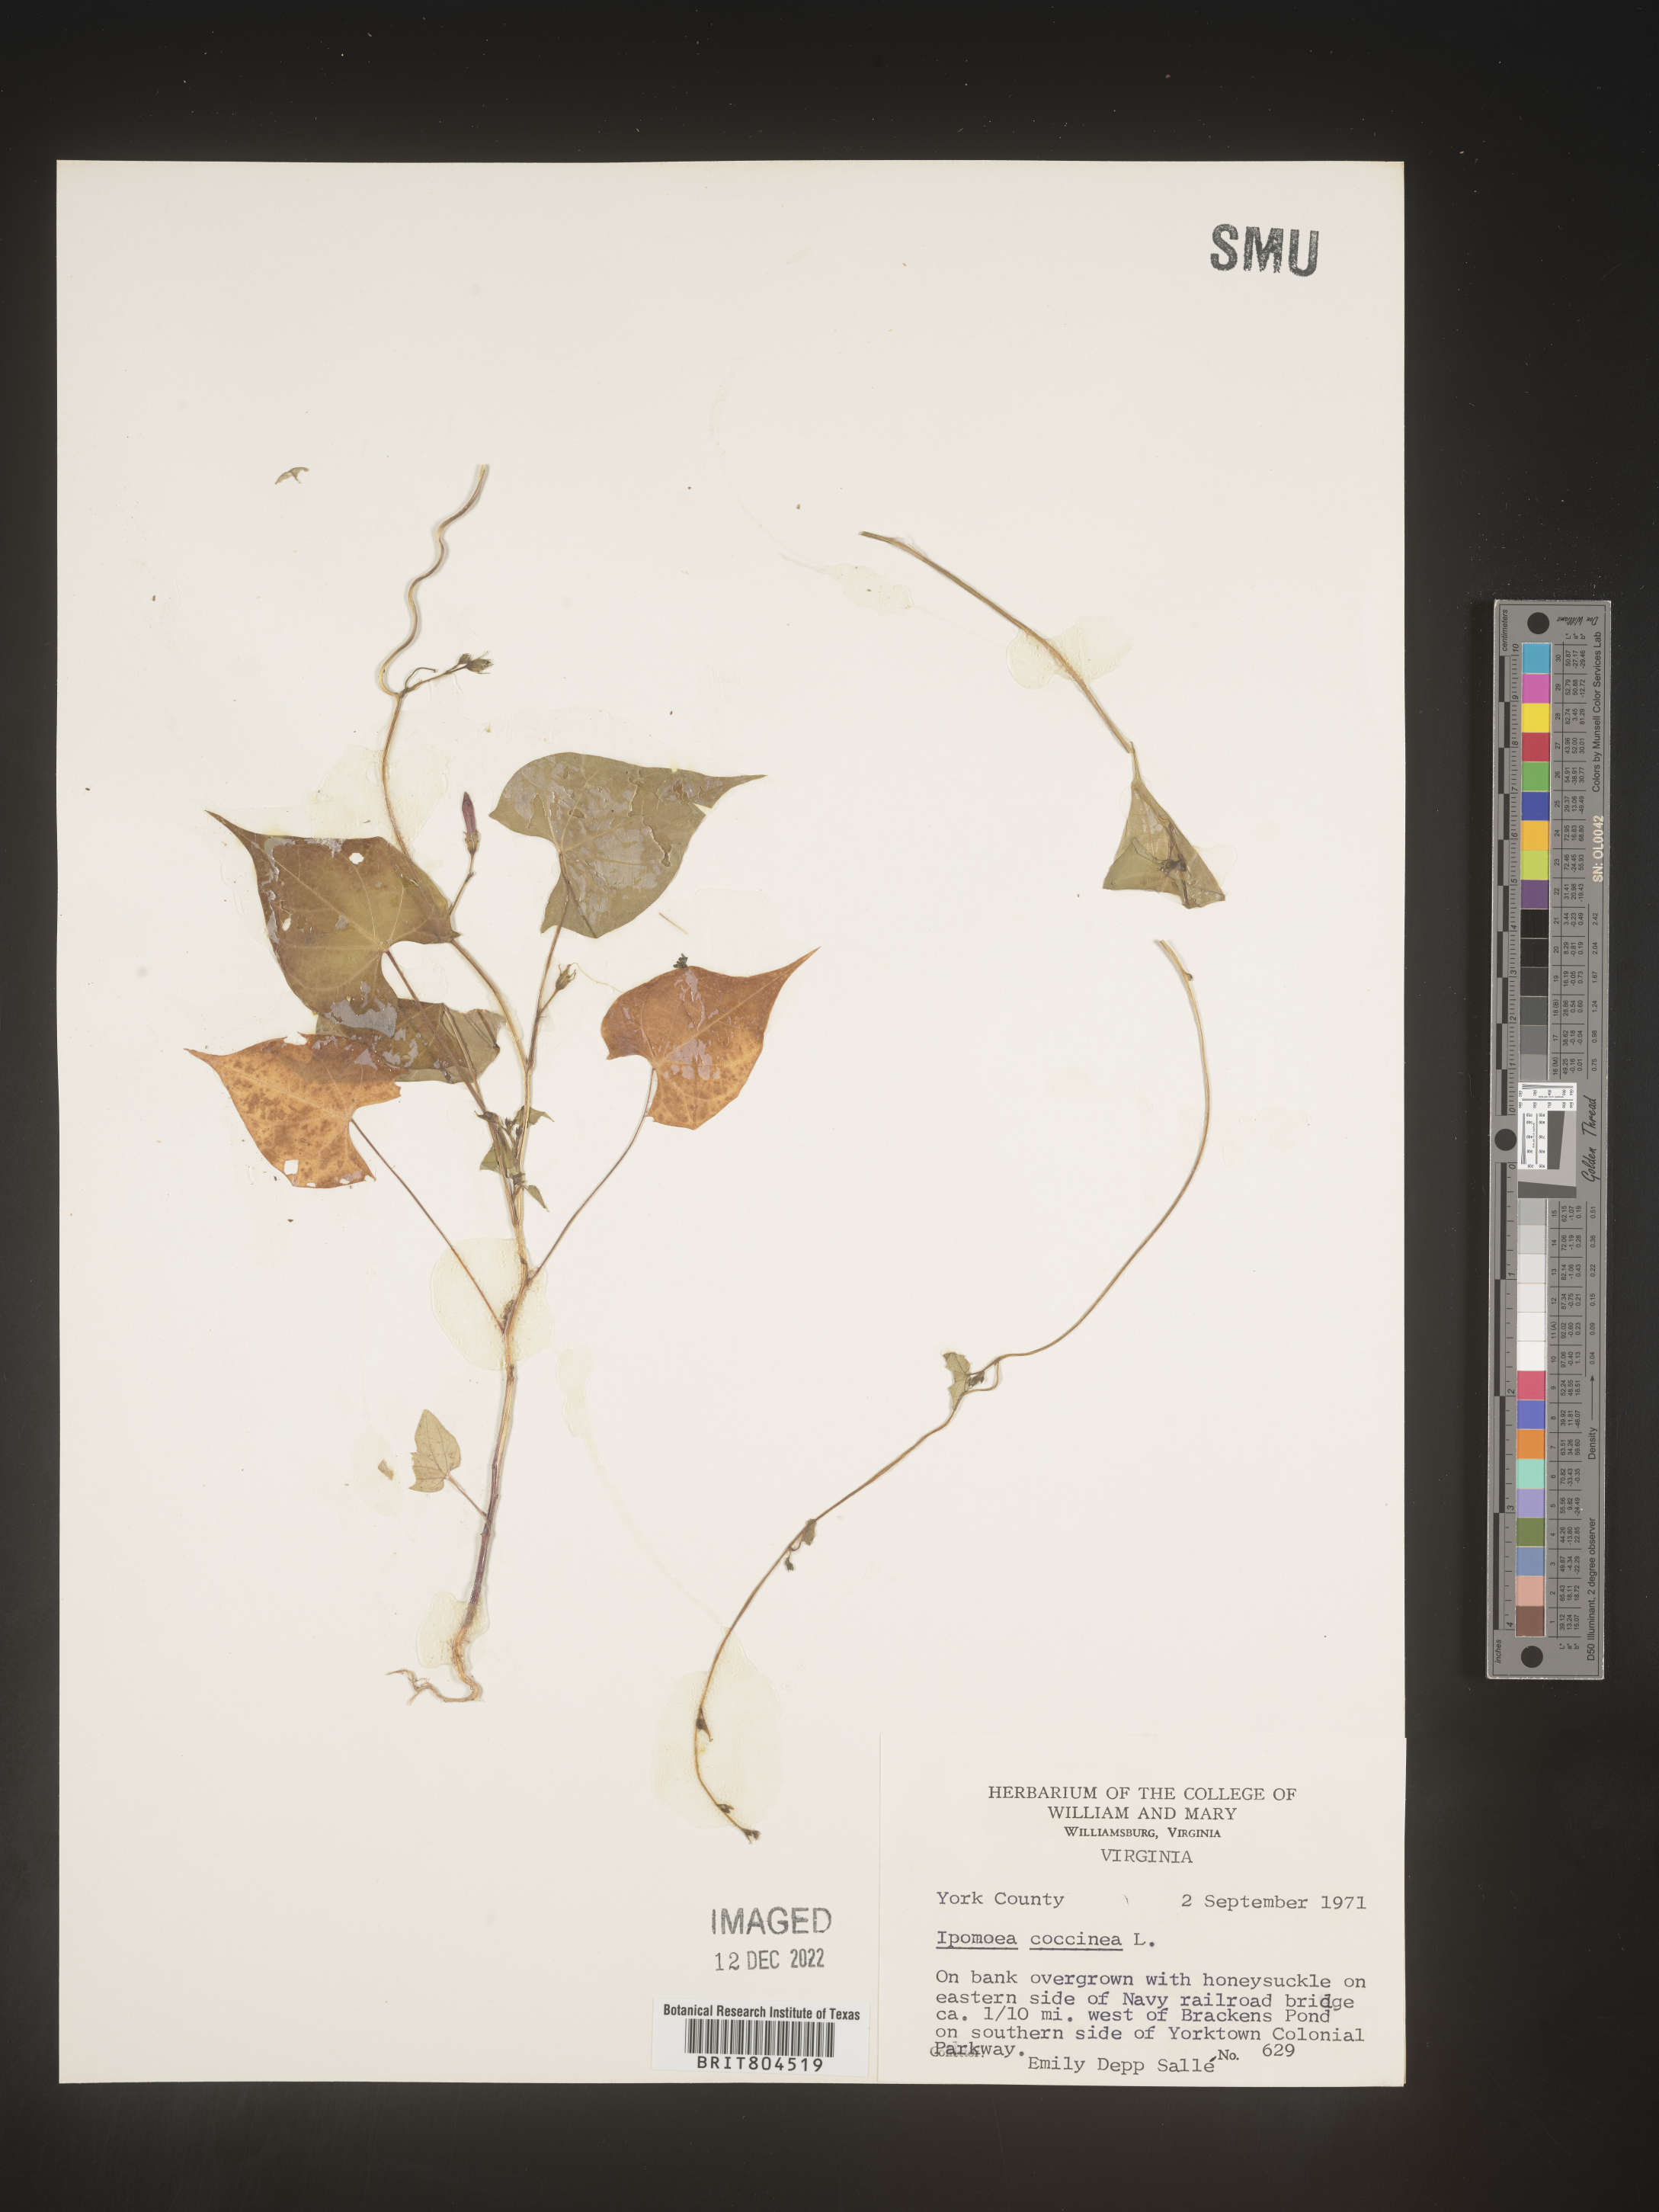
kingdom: Plantae
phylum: Tracheophyta
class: Magnoliopsida
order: Solanales
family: Convolvulaceae
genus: Ipomoea
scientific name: Ipomoea coccinea
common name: Red morning-glory
